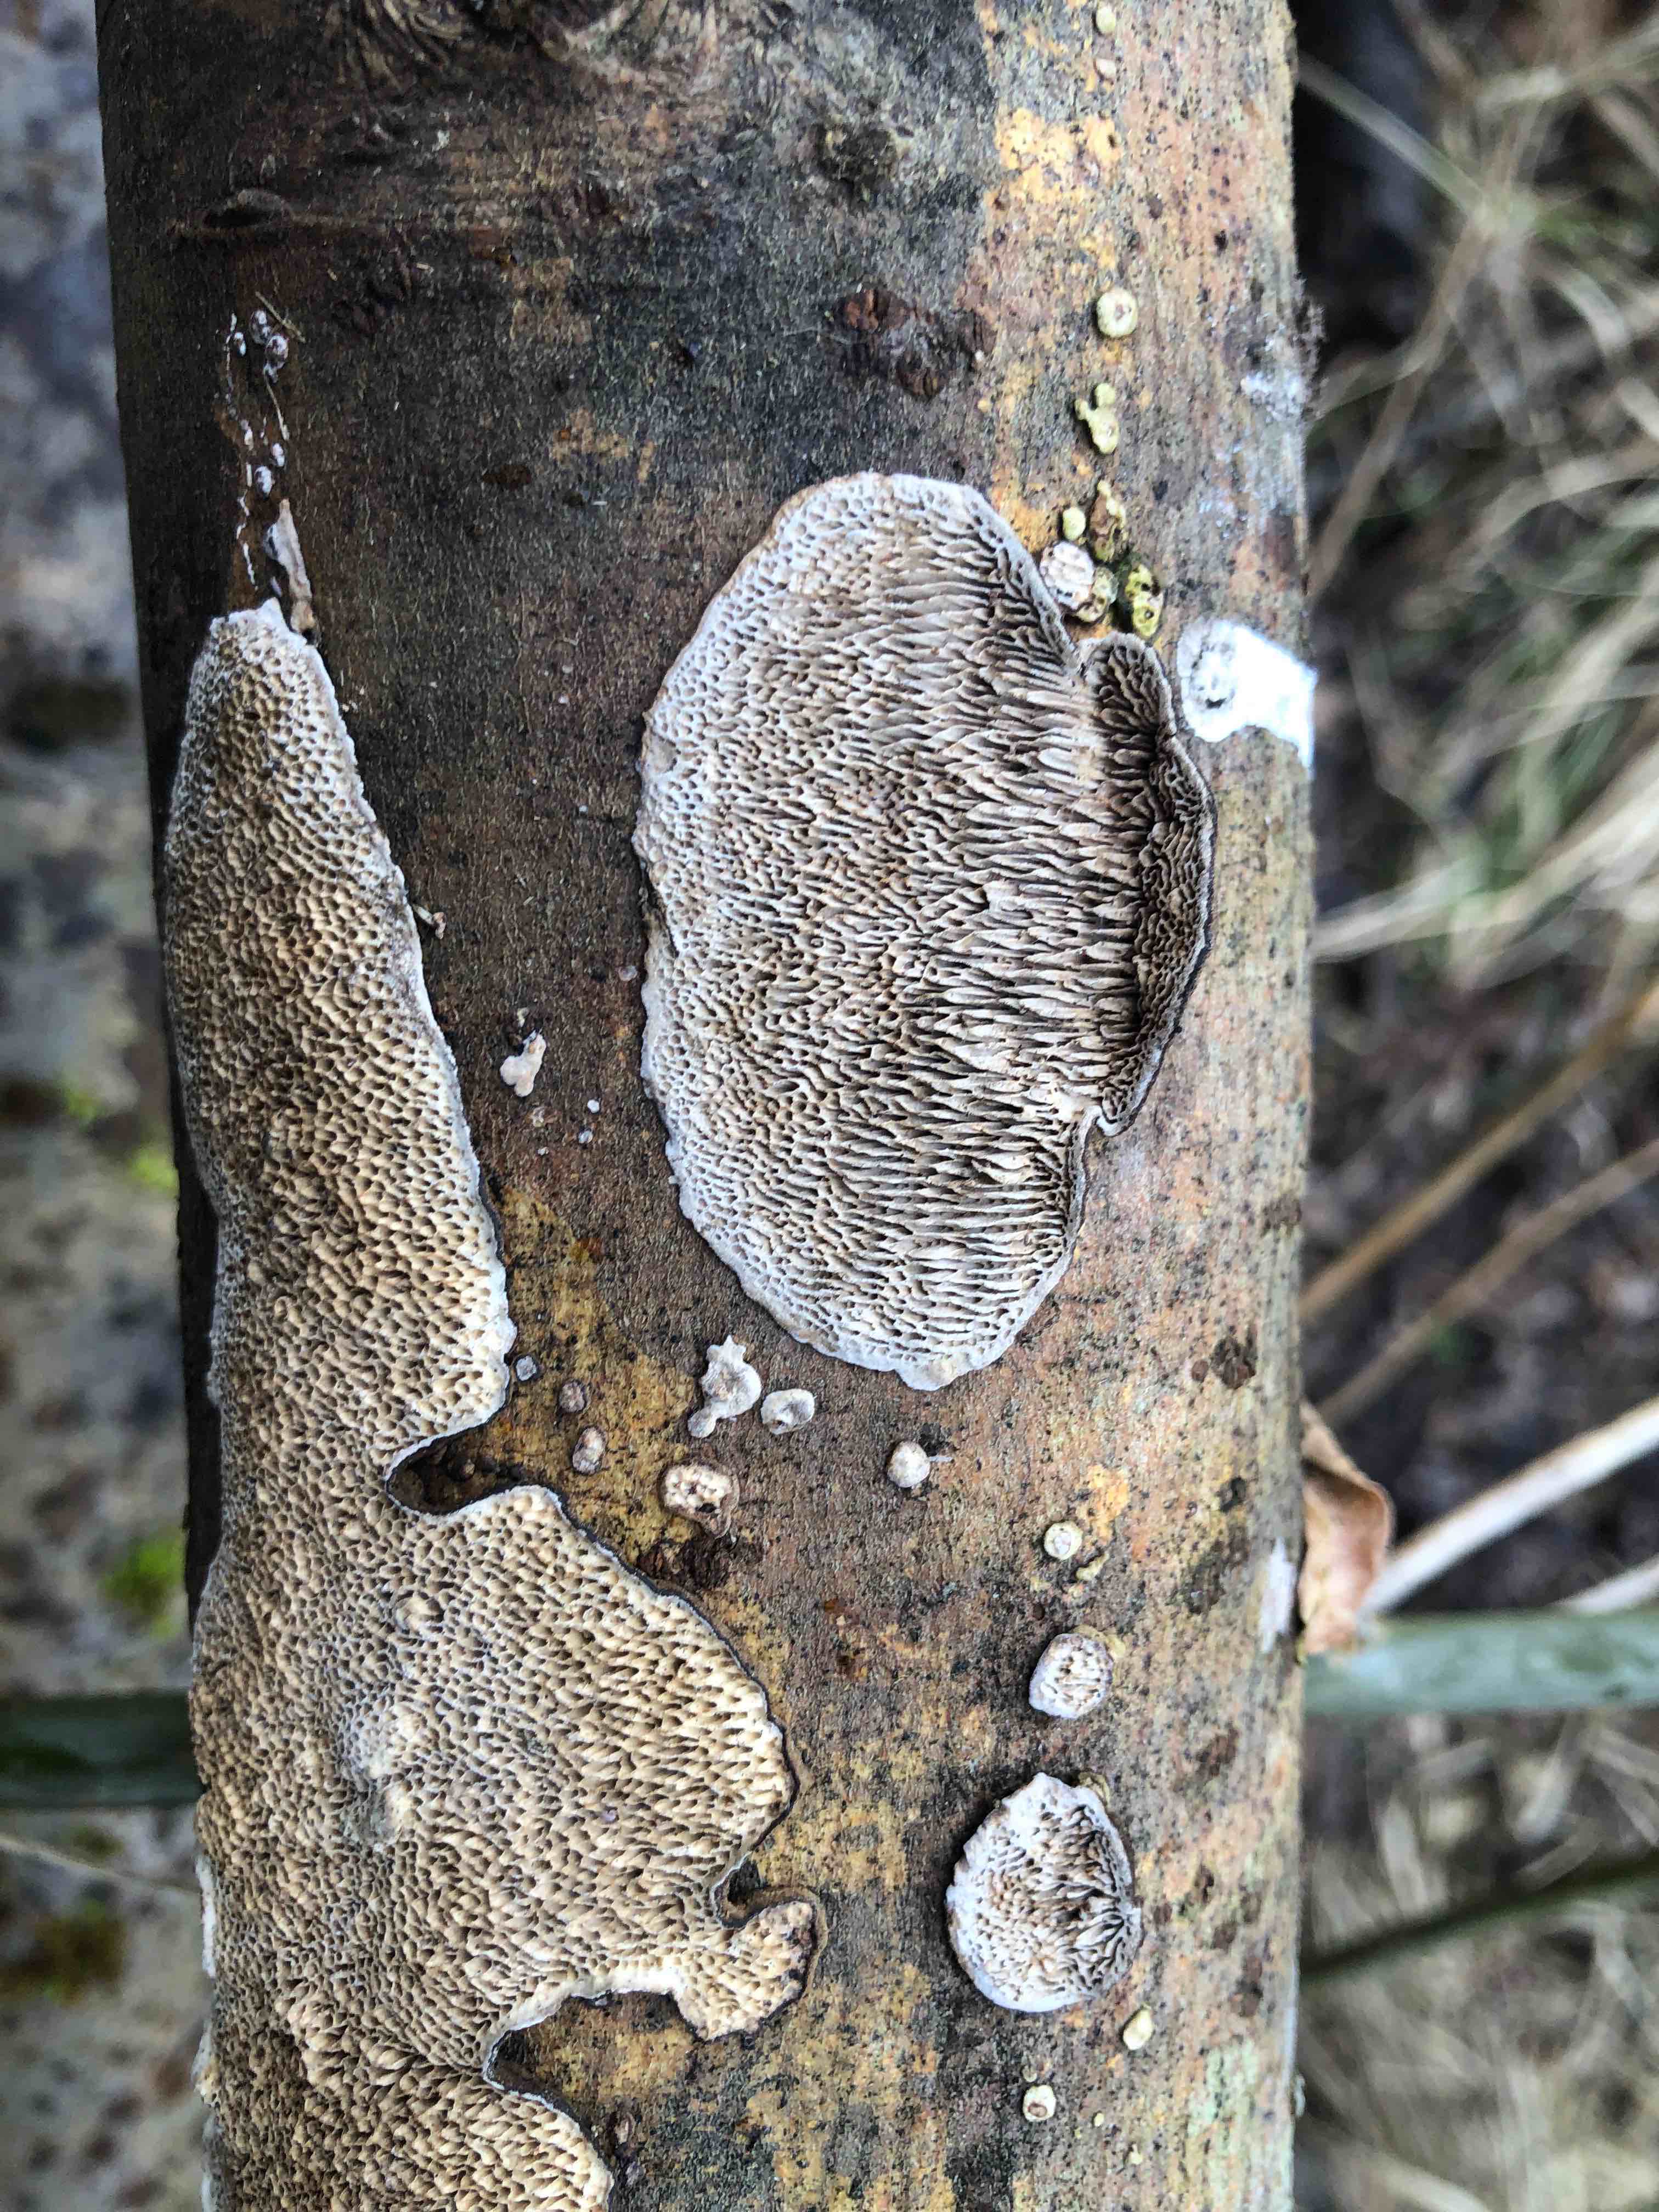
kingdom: Fungi
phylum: Basidiomycota
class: Agaricomycetes
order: Polyporales
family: Polyporaceae
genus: Podofomes
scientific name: Podofomes mollis
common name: blød begporesvamp
